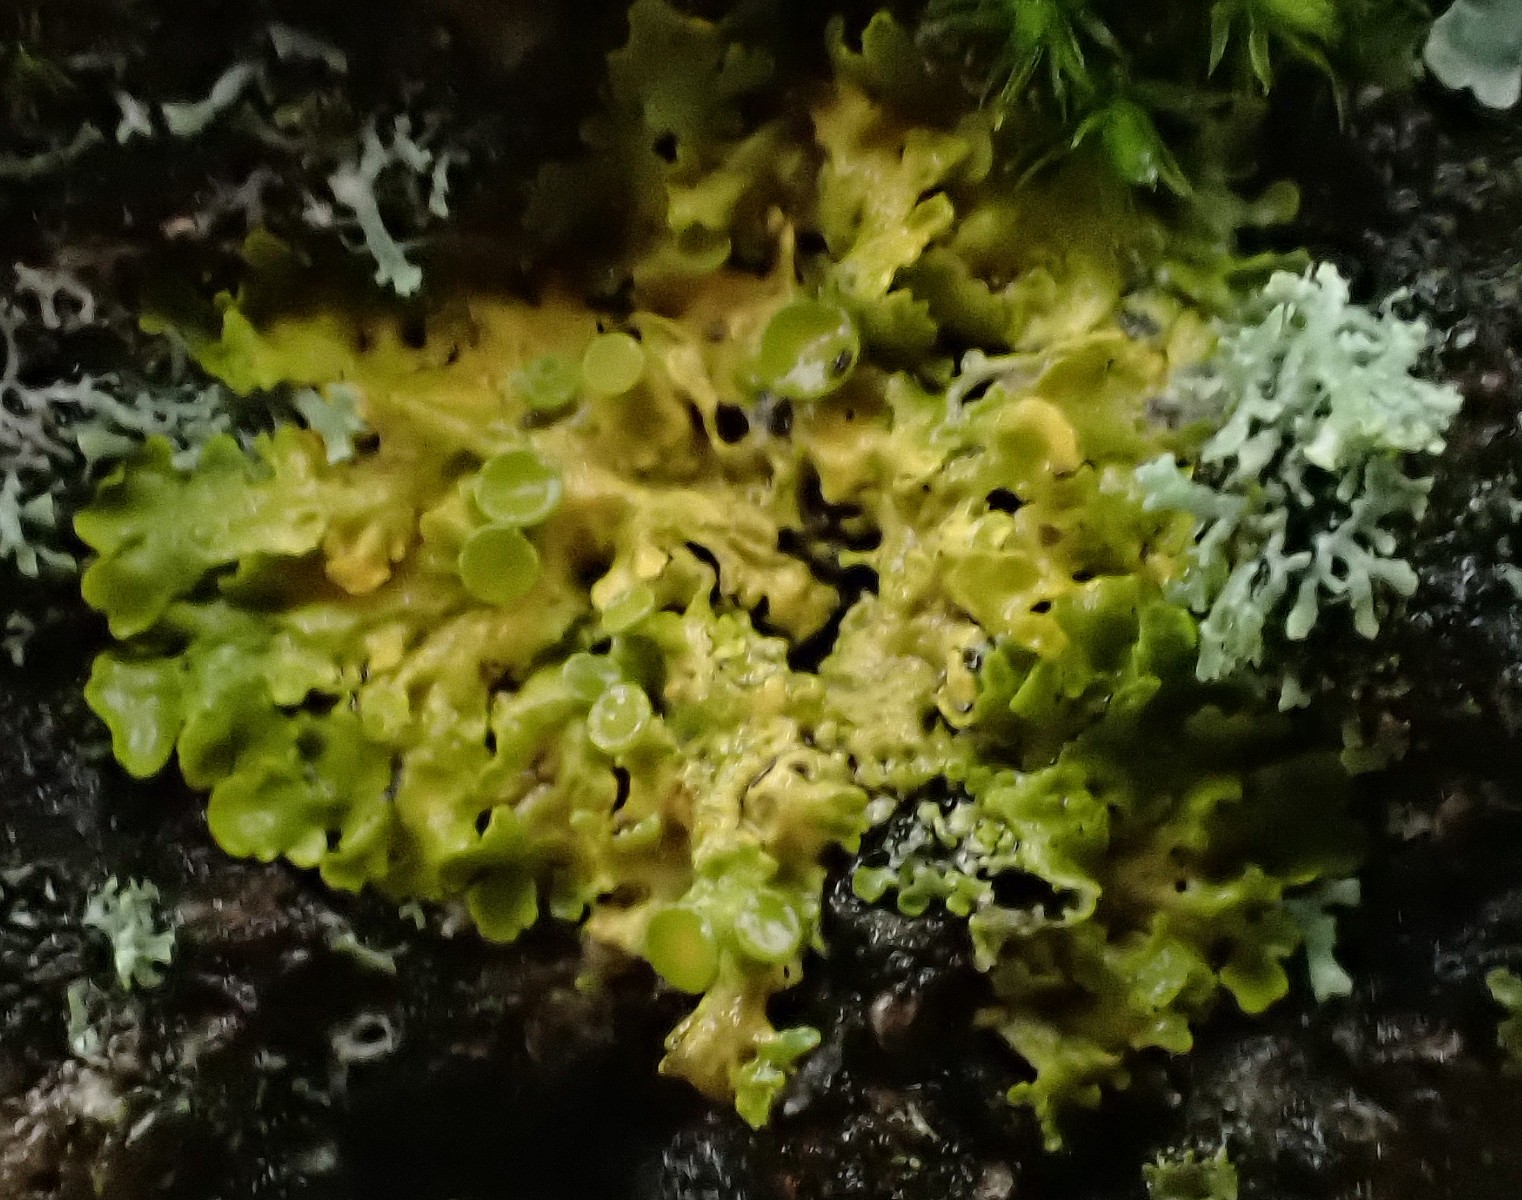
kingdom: Fungi
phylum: Ascomycota
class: Lecanoromycetes
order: Teloschistales
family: Teloschistaceae
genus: Xanthoria
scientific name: Xanthoria parietina
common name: almindelig væggelav
